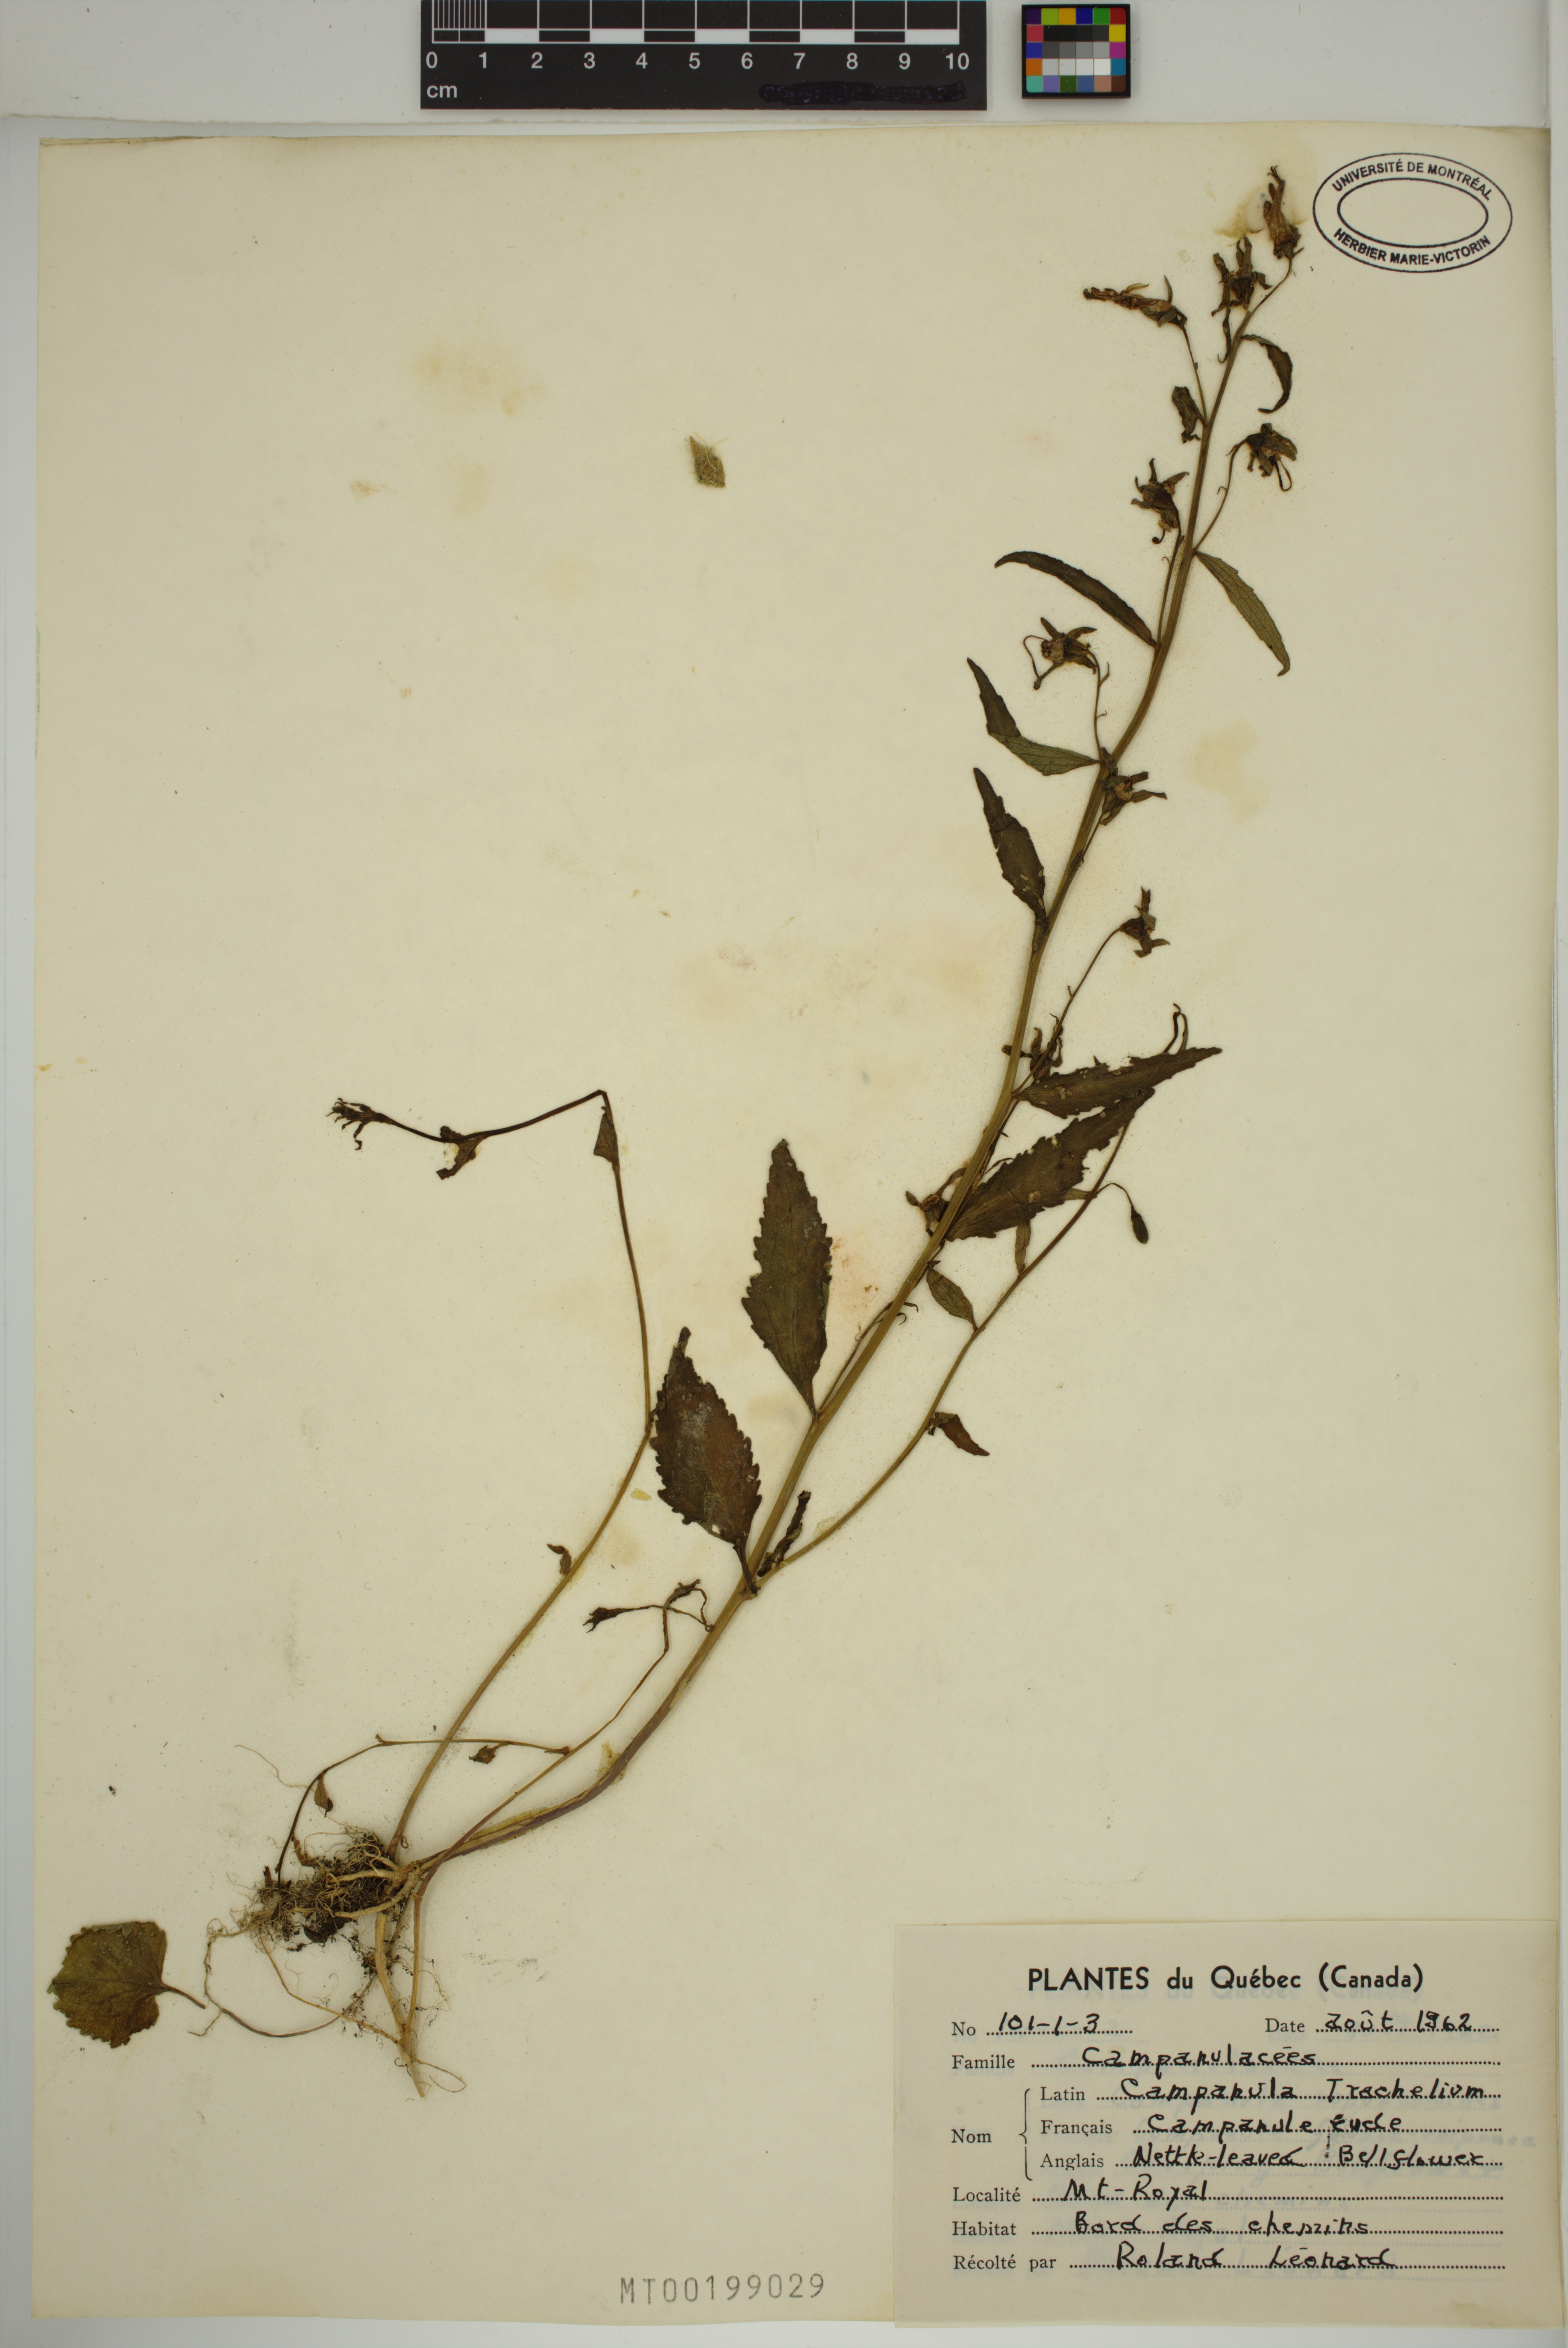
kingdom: Plantae
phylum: Tracheophyta
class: Magnoliopsida
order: Asterales
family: Campanulaceae
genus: Campanula
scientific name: Campanula trachelium
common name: Nettle-leaved bellflower
